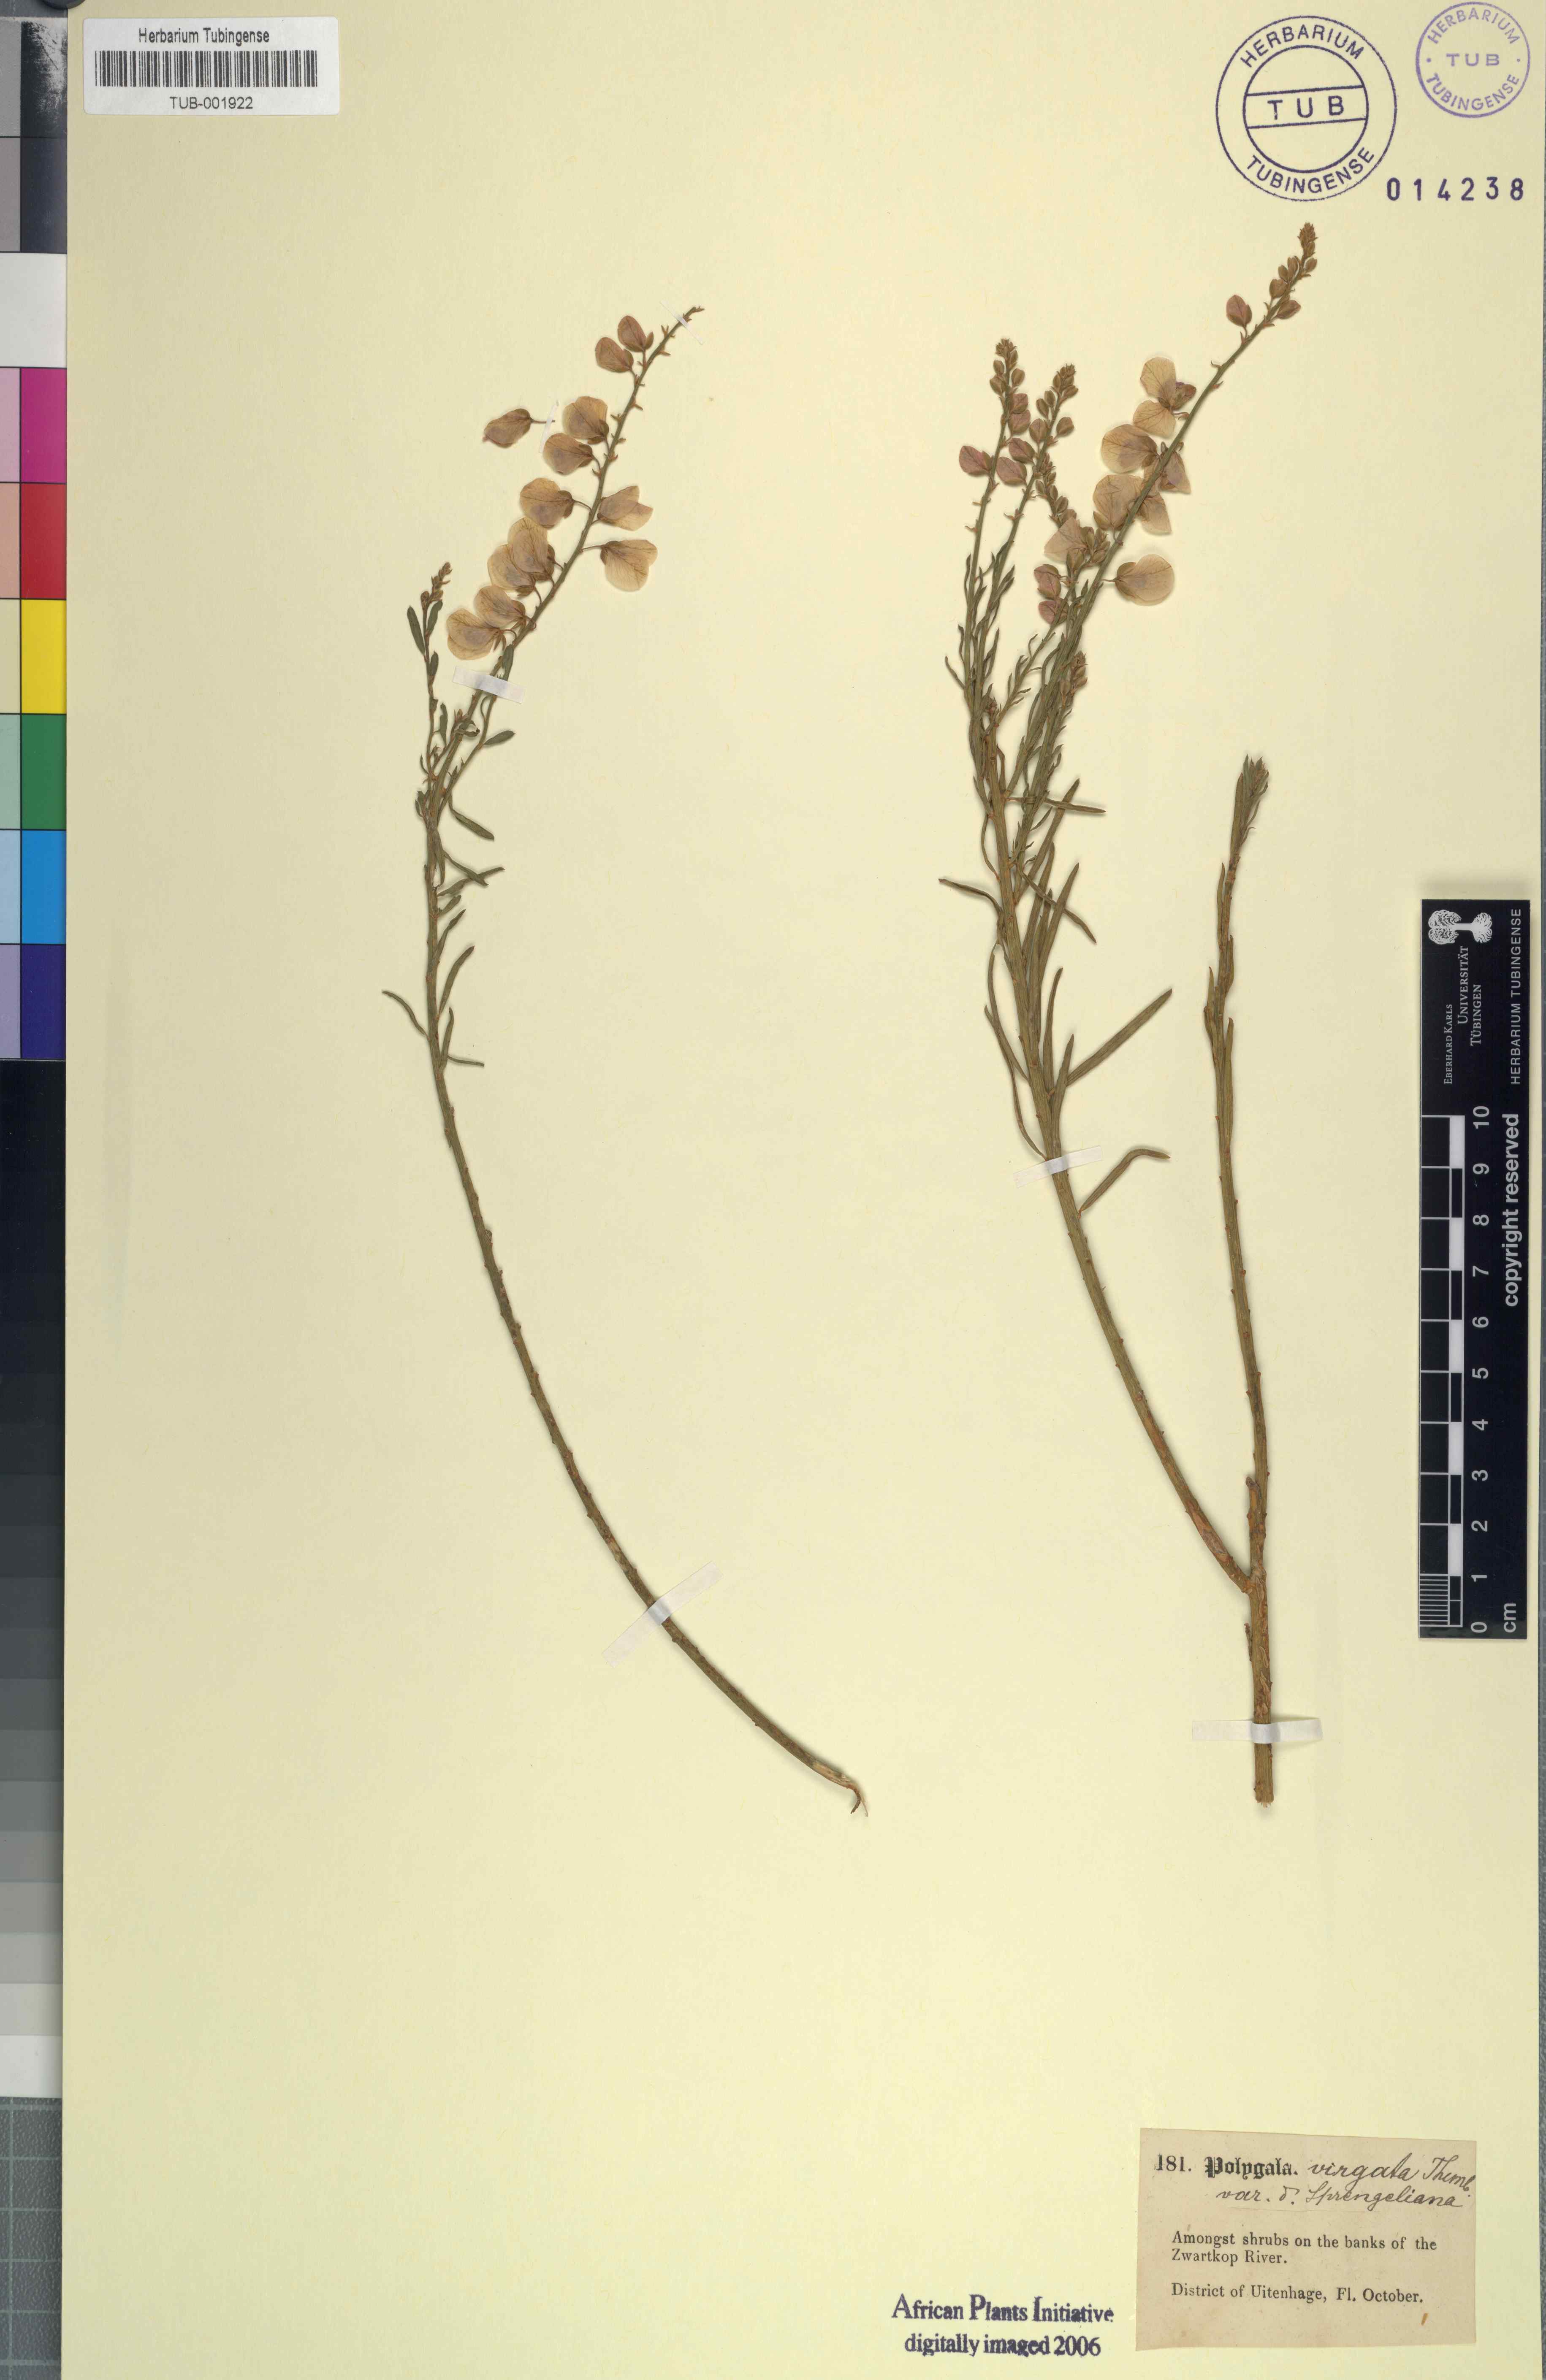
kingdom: Plantae
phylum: Tracheophyta
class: Magnoliopsida
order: Fabales
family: Polygalaceae
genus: Polygala
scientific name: Polygala virgata
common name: Milkwort
